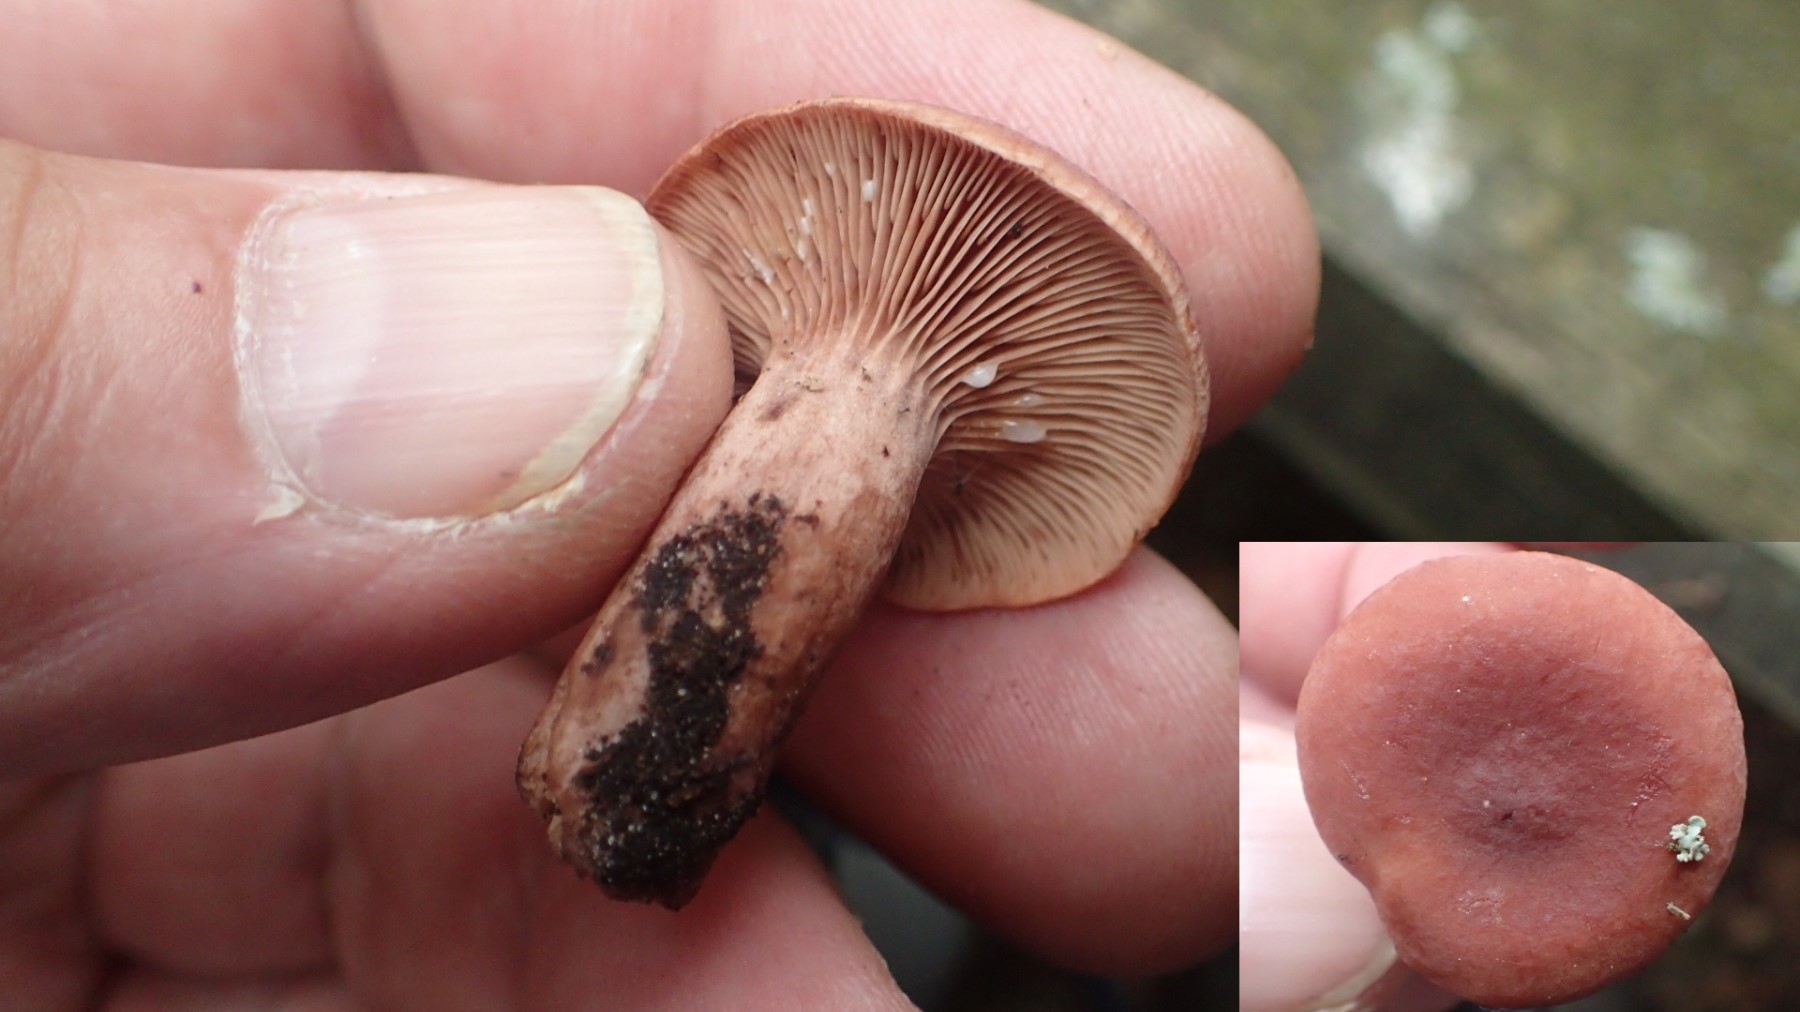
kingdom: Fungi
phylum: Basidiomycota
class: Agaricomycetes
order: Russulales
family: Russulaceae
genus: Lactarius
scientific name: Lactarius camphoratus
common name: kamfer-mælkehat
